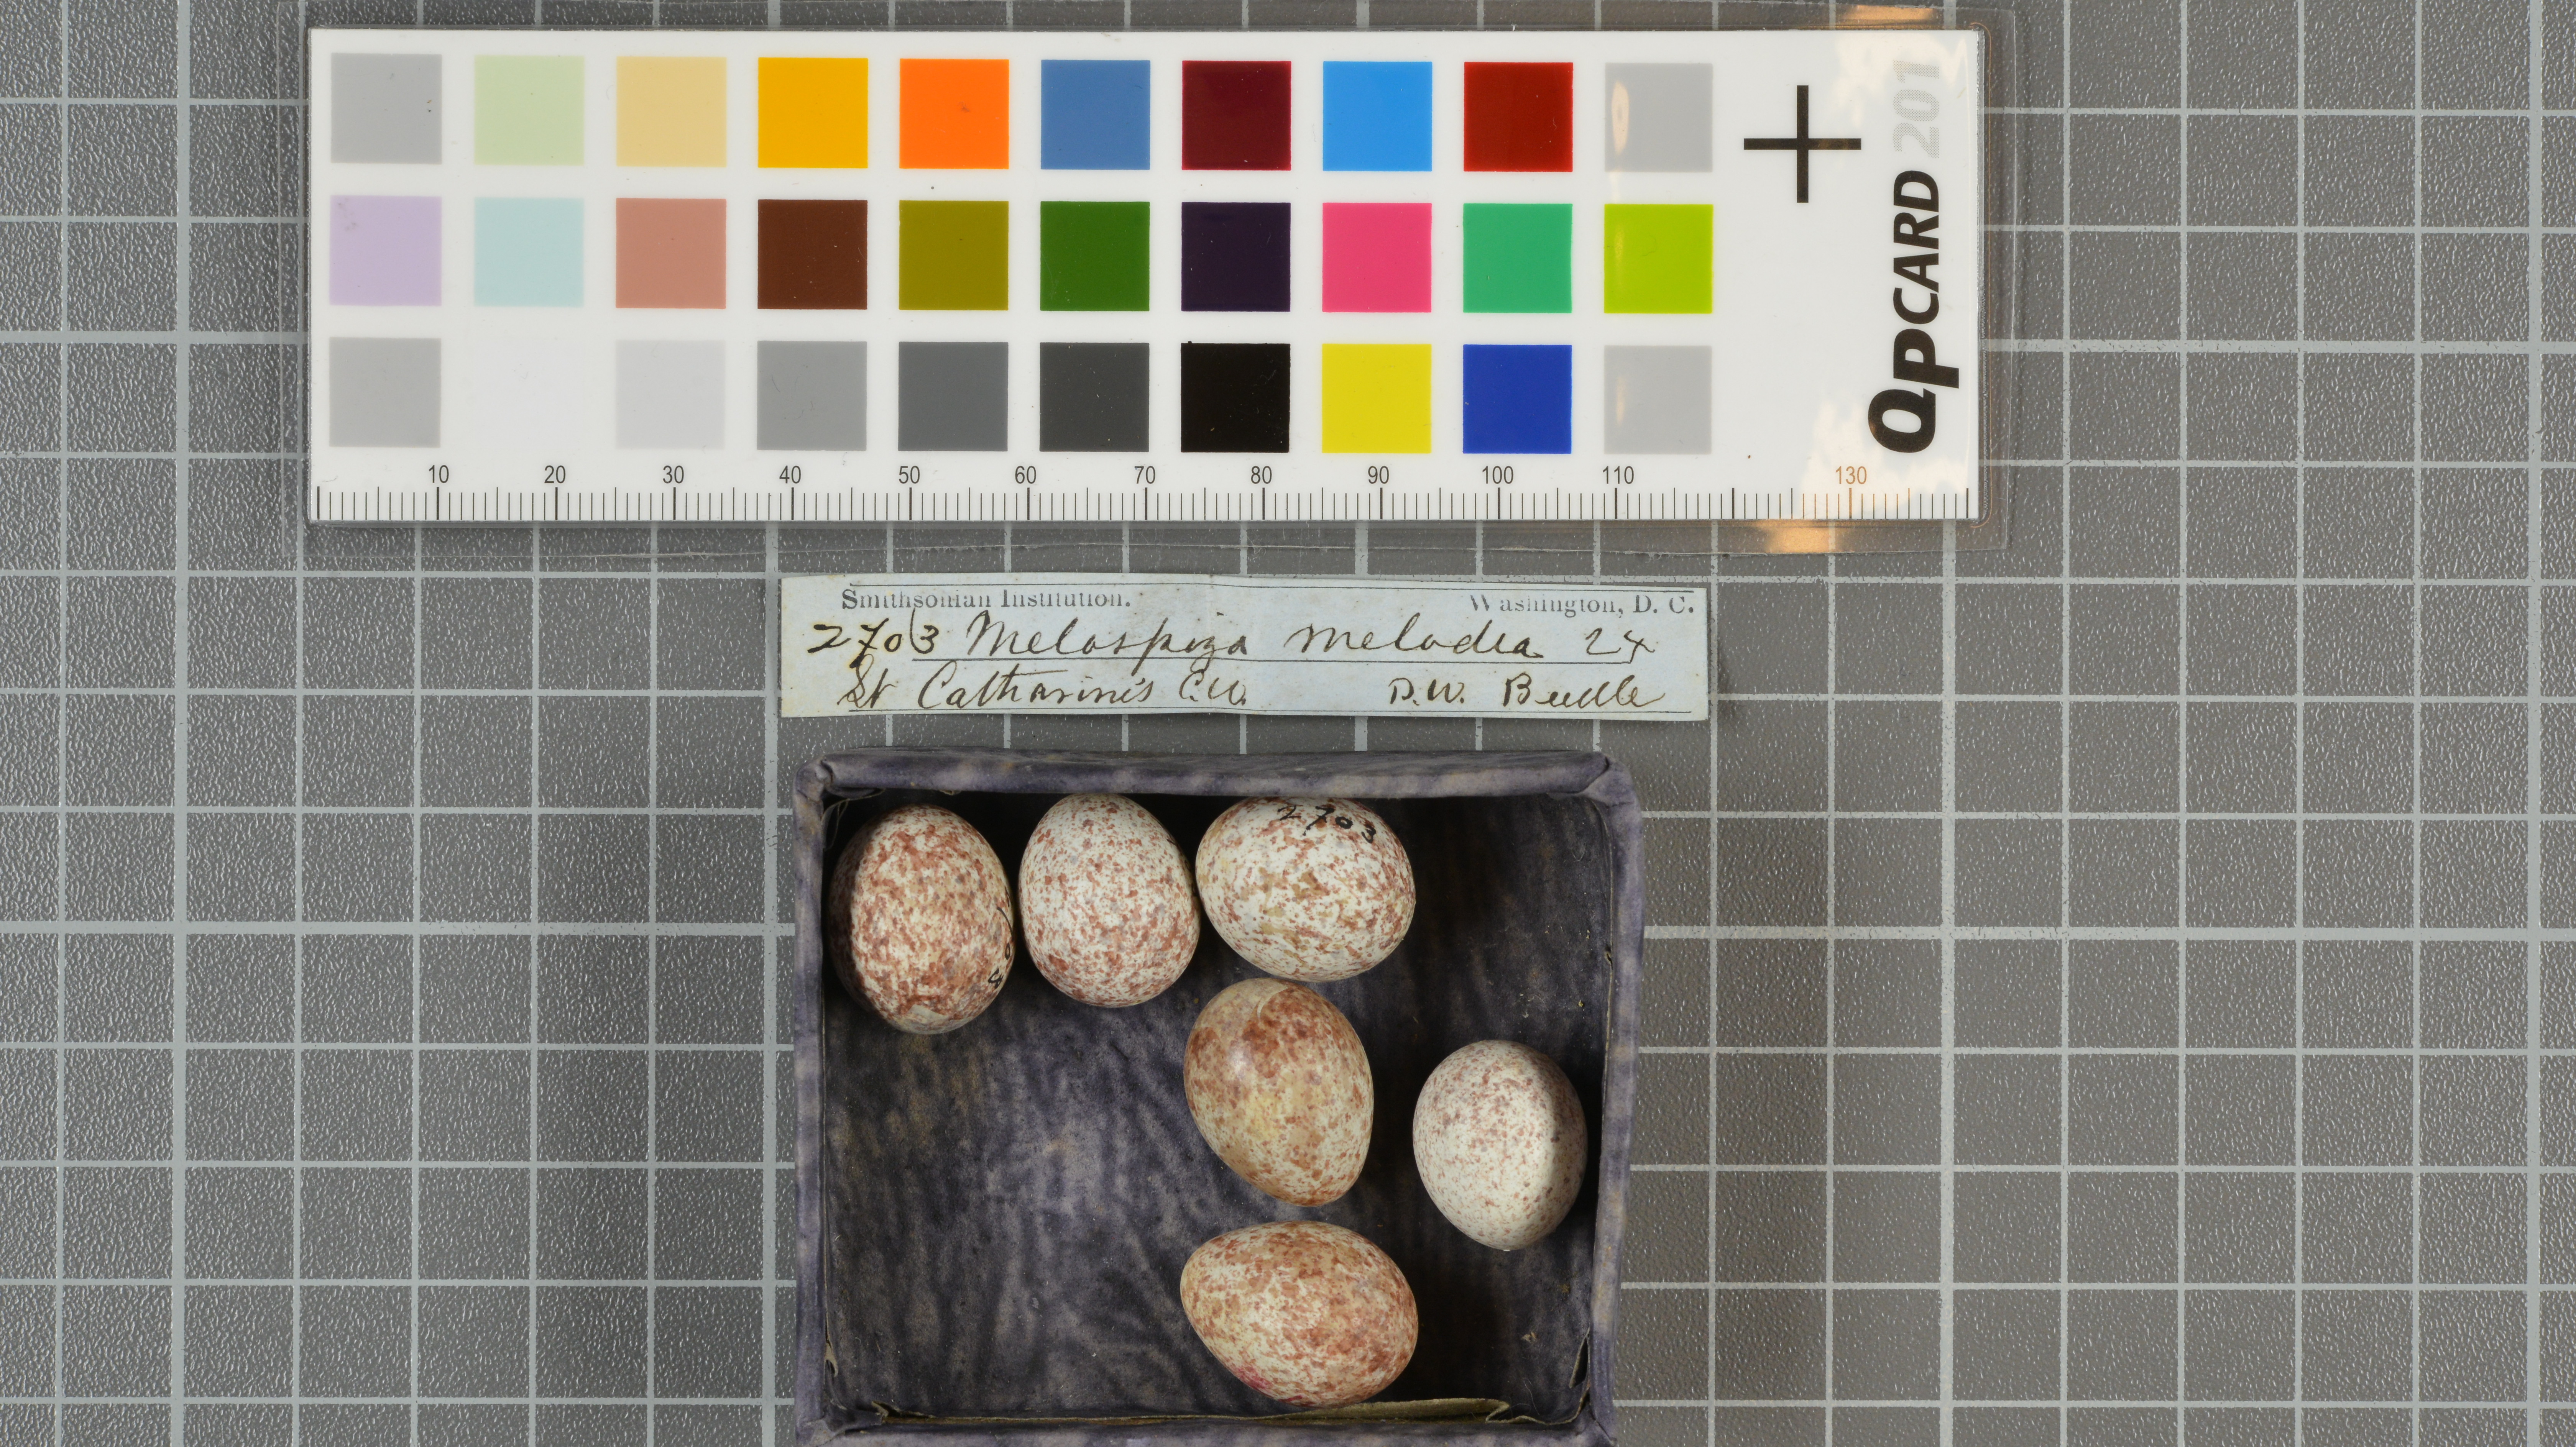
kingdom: Animalia
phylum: Chordata
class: Aves
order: Passeriformes
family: Passerellidae
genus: Melospiza
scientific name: Melospiza melodia
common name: Song sparrow
